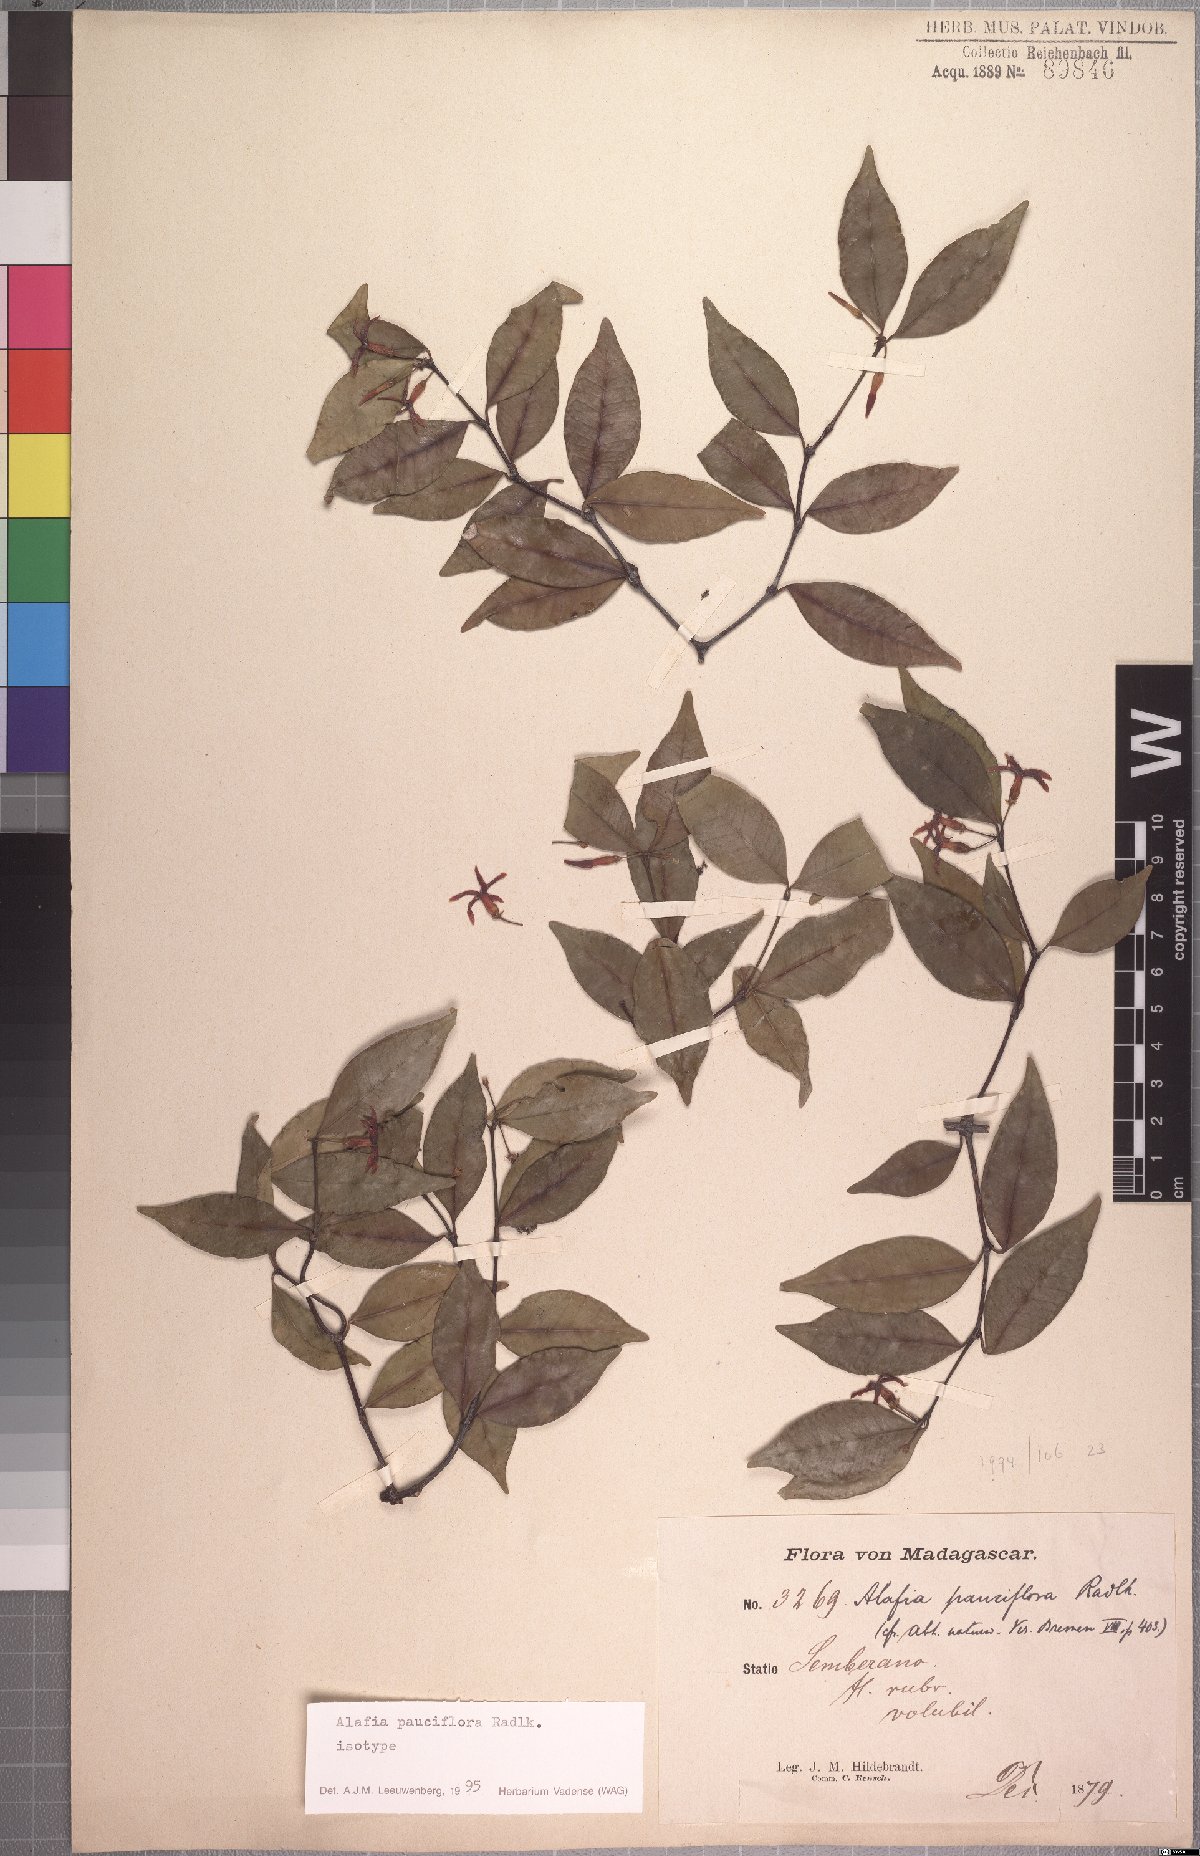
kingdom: Plantae
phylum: Tracheophyta
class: Magnoliopsida
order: Gentianales
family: Apocynaceae
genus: Alafia
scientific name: Alafia pauciflora
